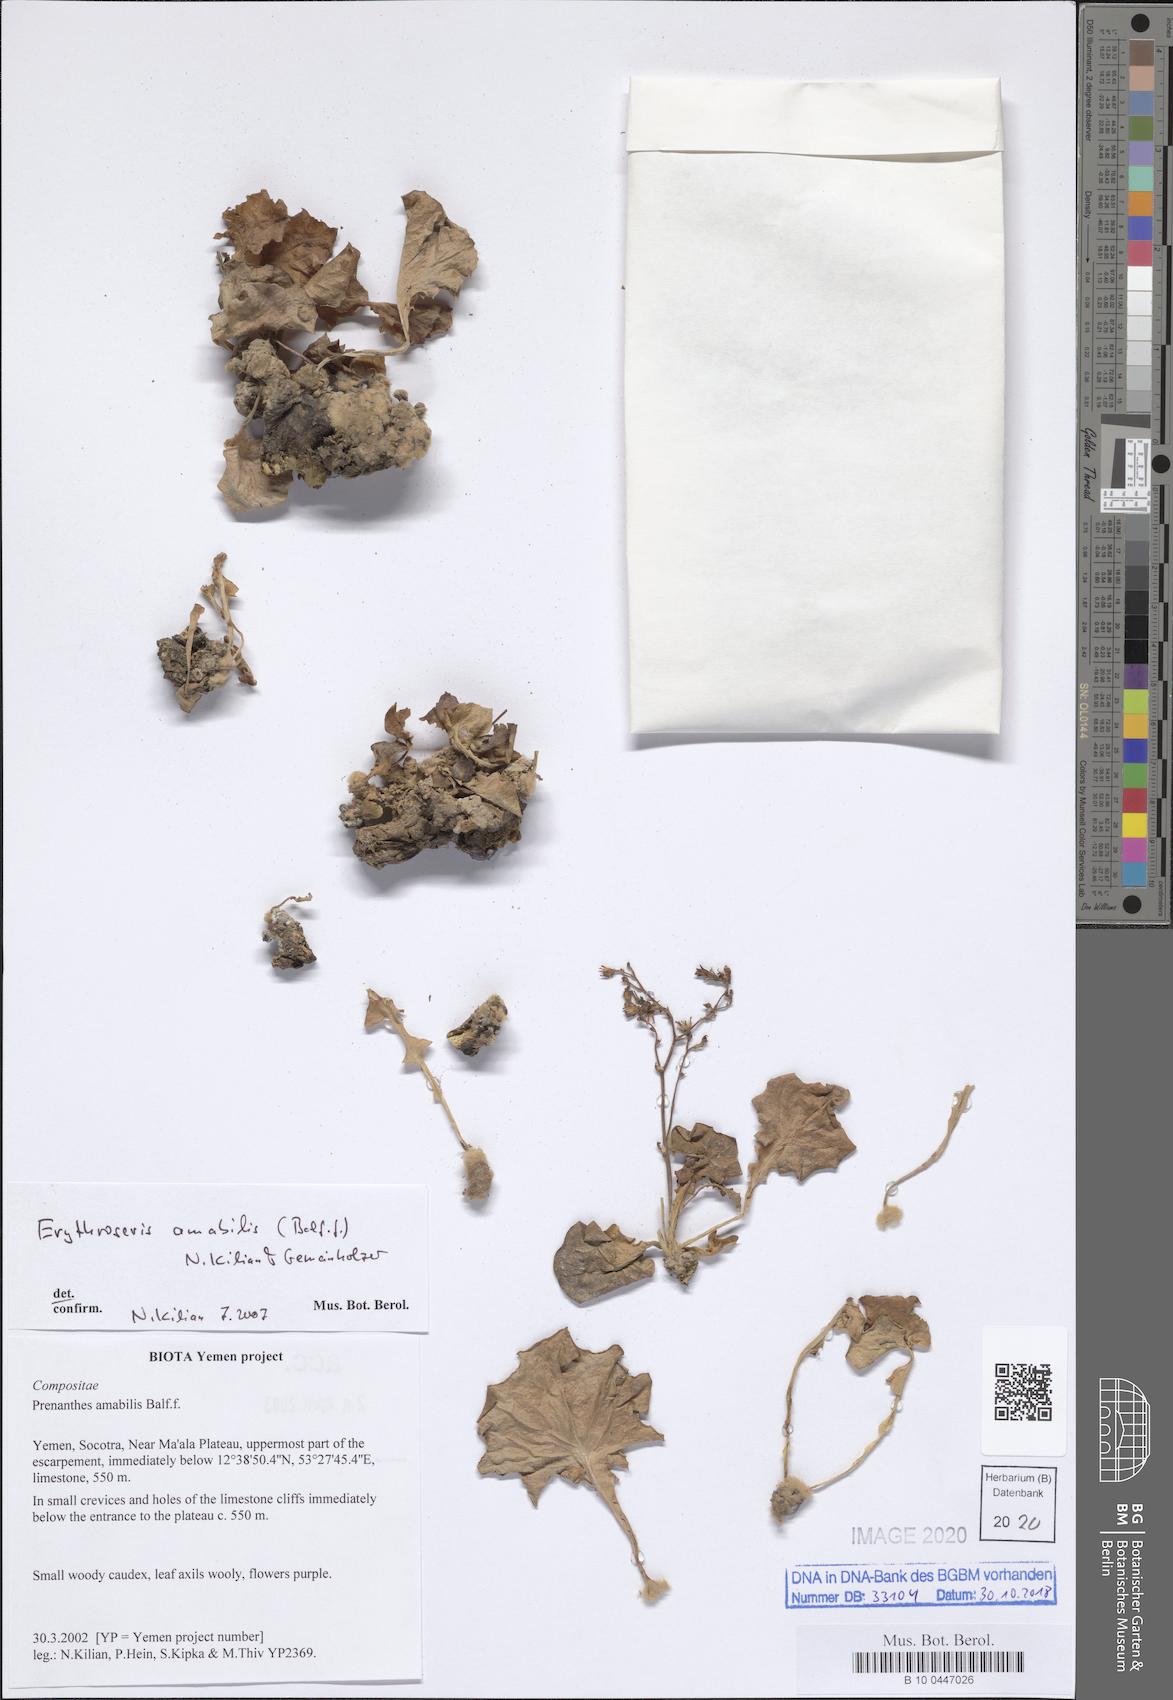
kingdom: Plantae
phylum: Tracheophyta
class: Magnoliopsida
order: Asterales
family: Asteraceae
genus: Erythroseris
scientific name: Erythroseris amabilis
